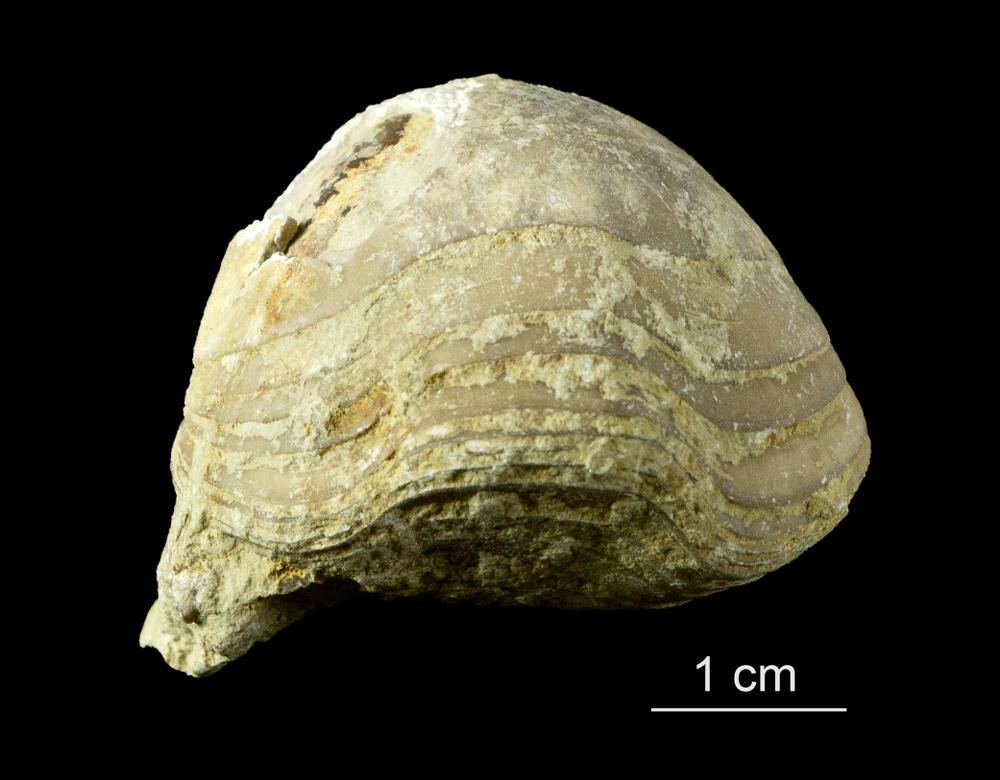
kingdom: Animalia
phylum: Brachiopoda
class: Rhynchonellata
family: Porambonitidae
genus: Porambonites
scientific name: Porambonites schmidti
